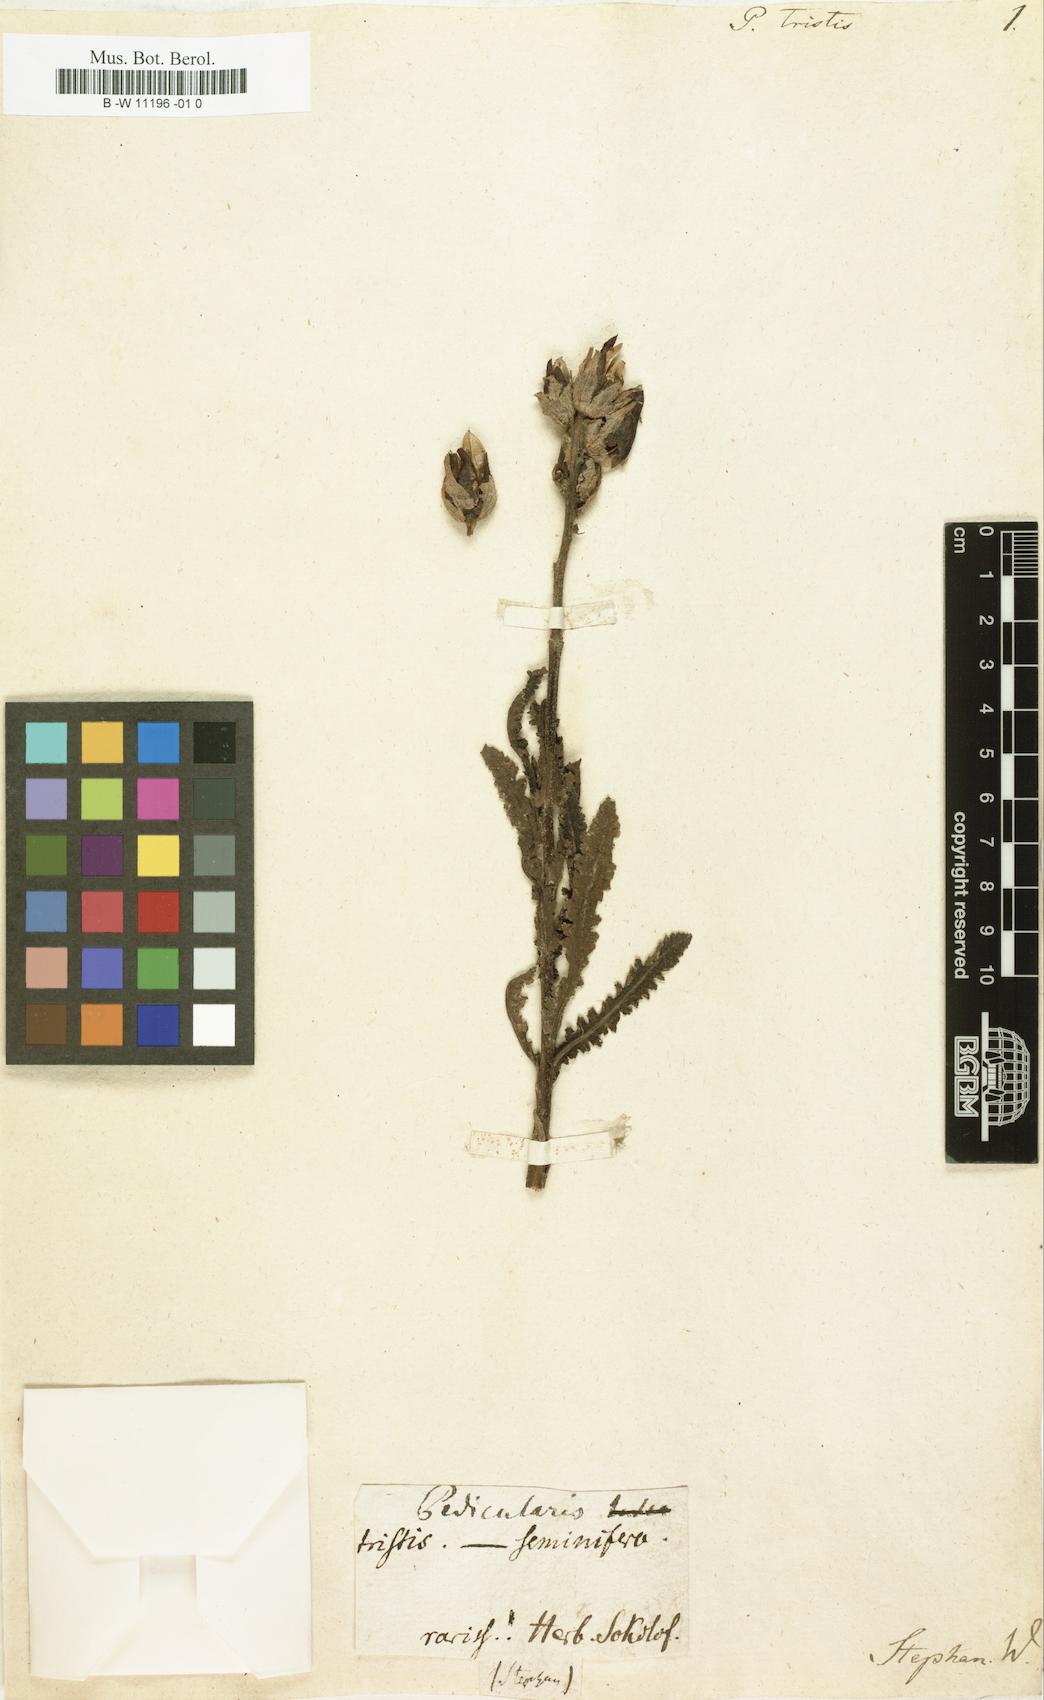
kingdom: Plantae
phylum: Tracheophyta
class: Magnoliopsida
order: Lamiales
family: Orobanchaceae
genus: Pedicularis
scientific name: Pedicularis tristis
